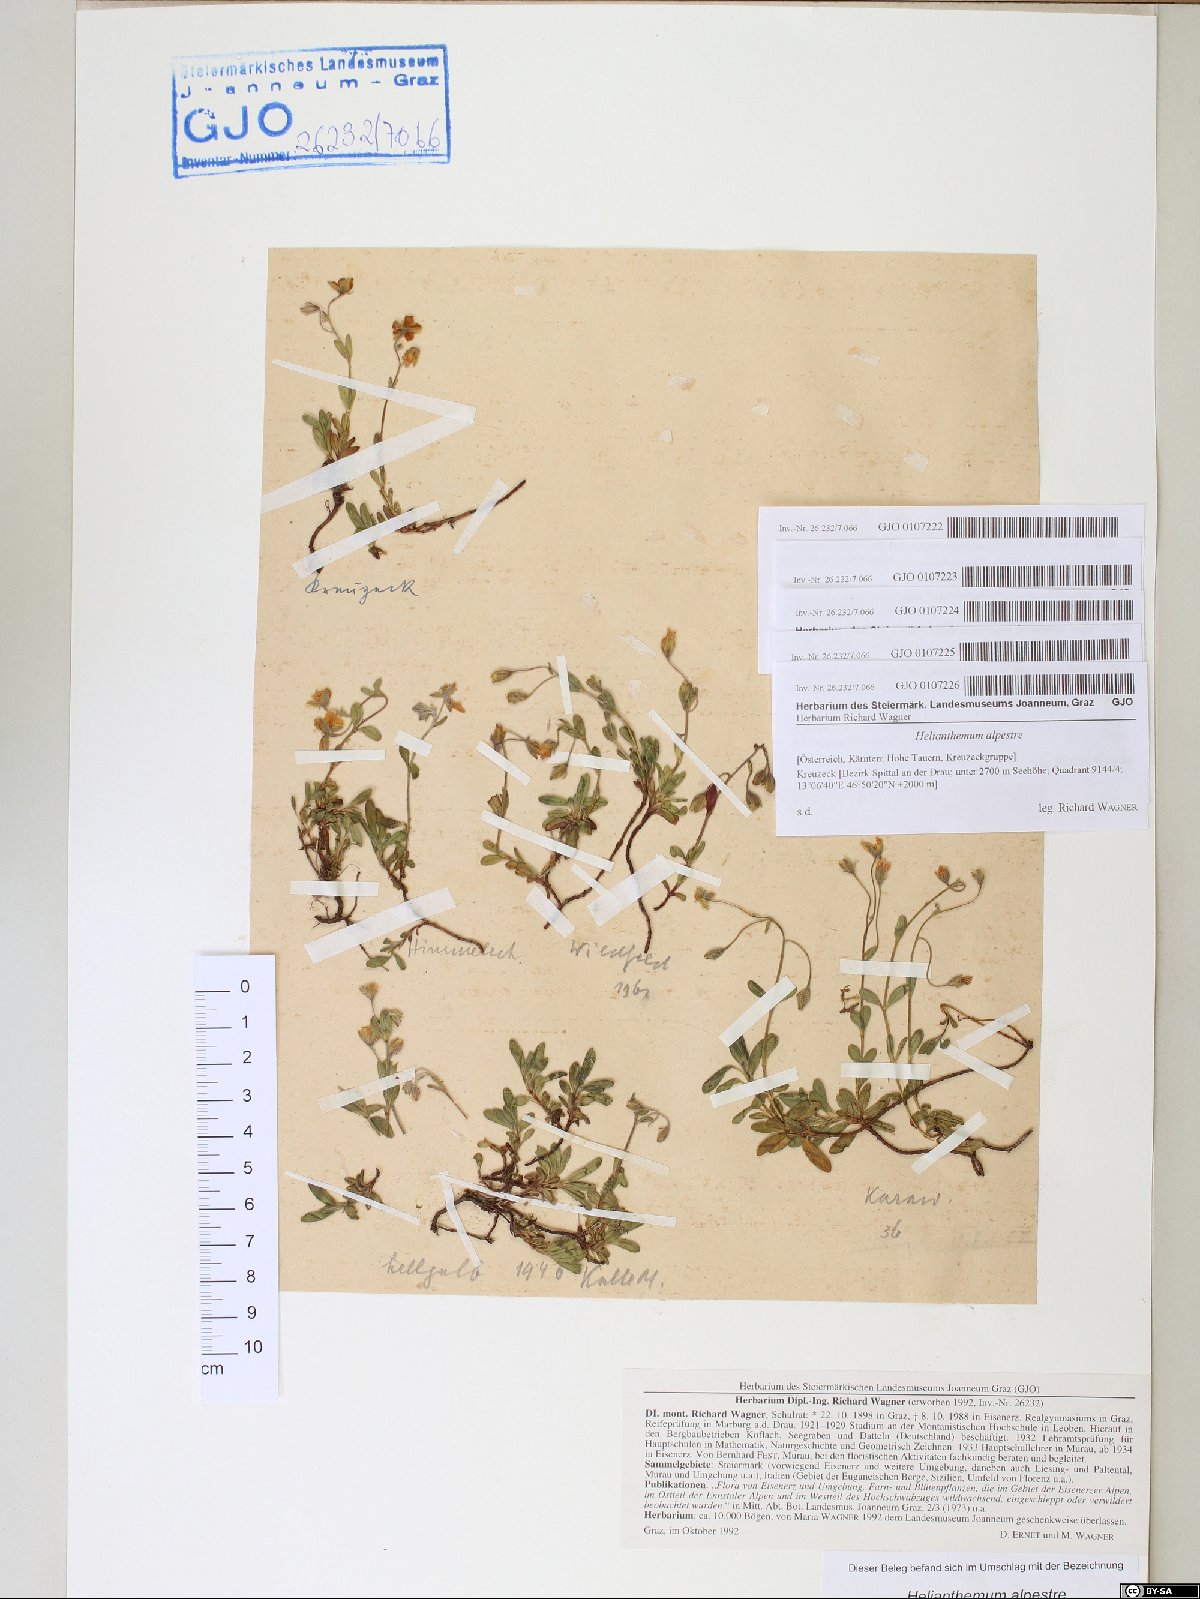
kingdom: Plantae
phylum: Tracheophyta
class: Magnoliopsida
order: Malvales
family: Cistaceae
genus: Helianthemum
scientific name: Helianthemum alpestre
